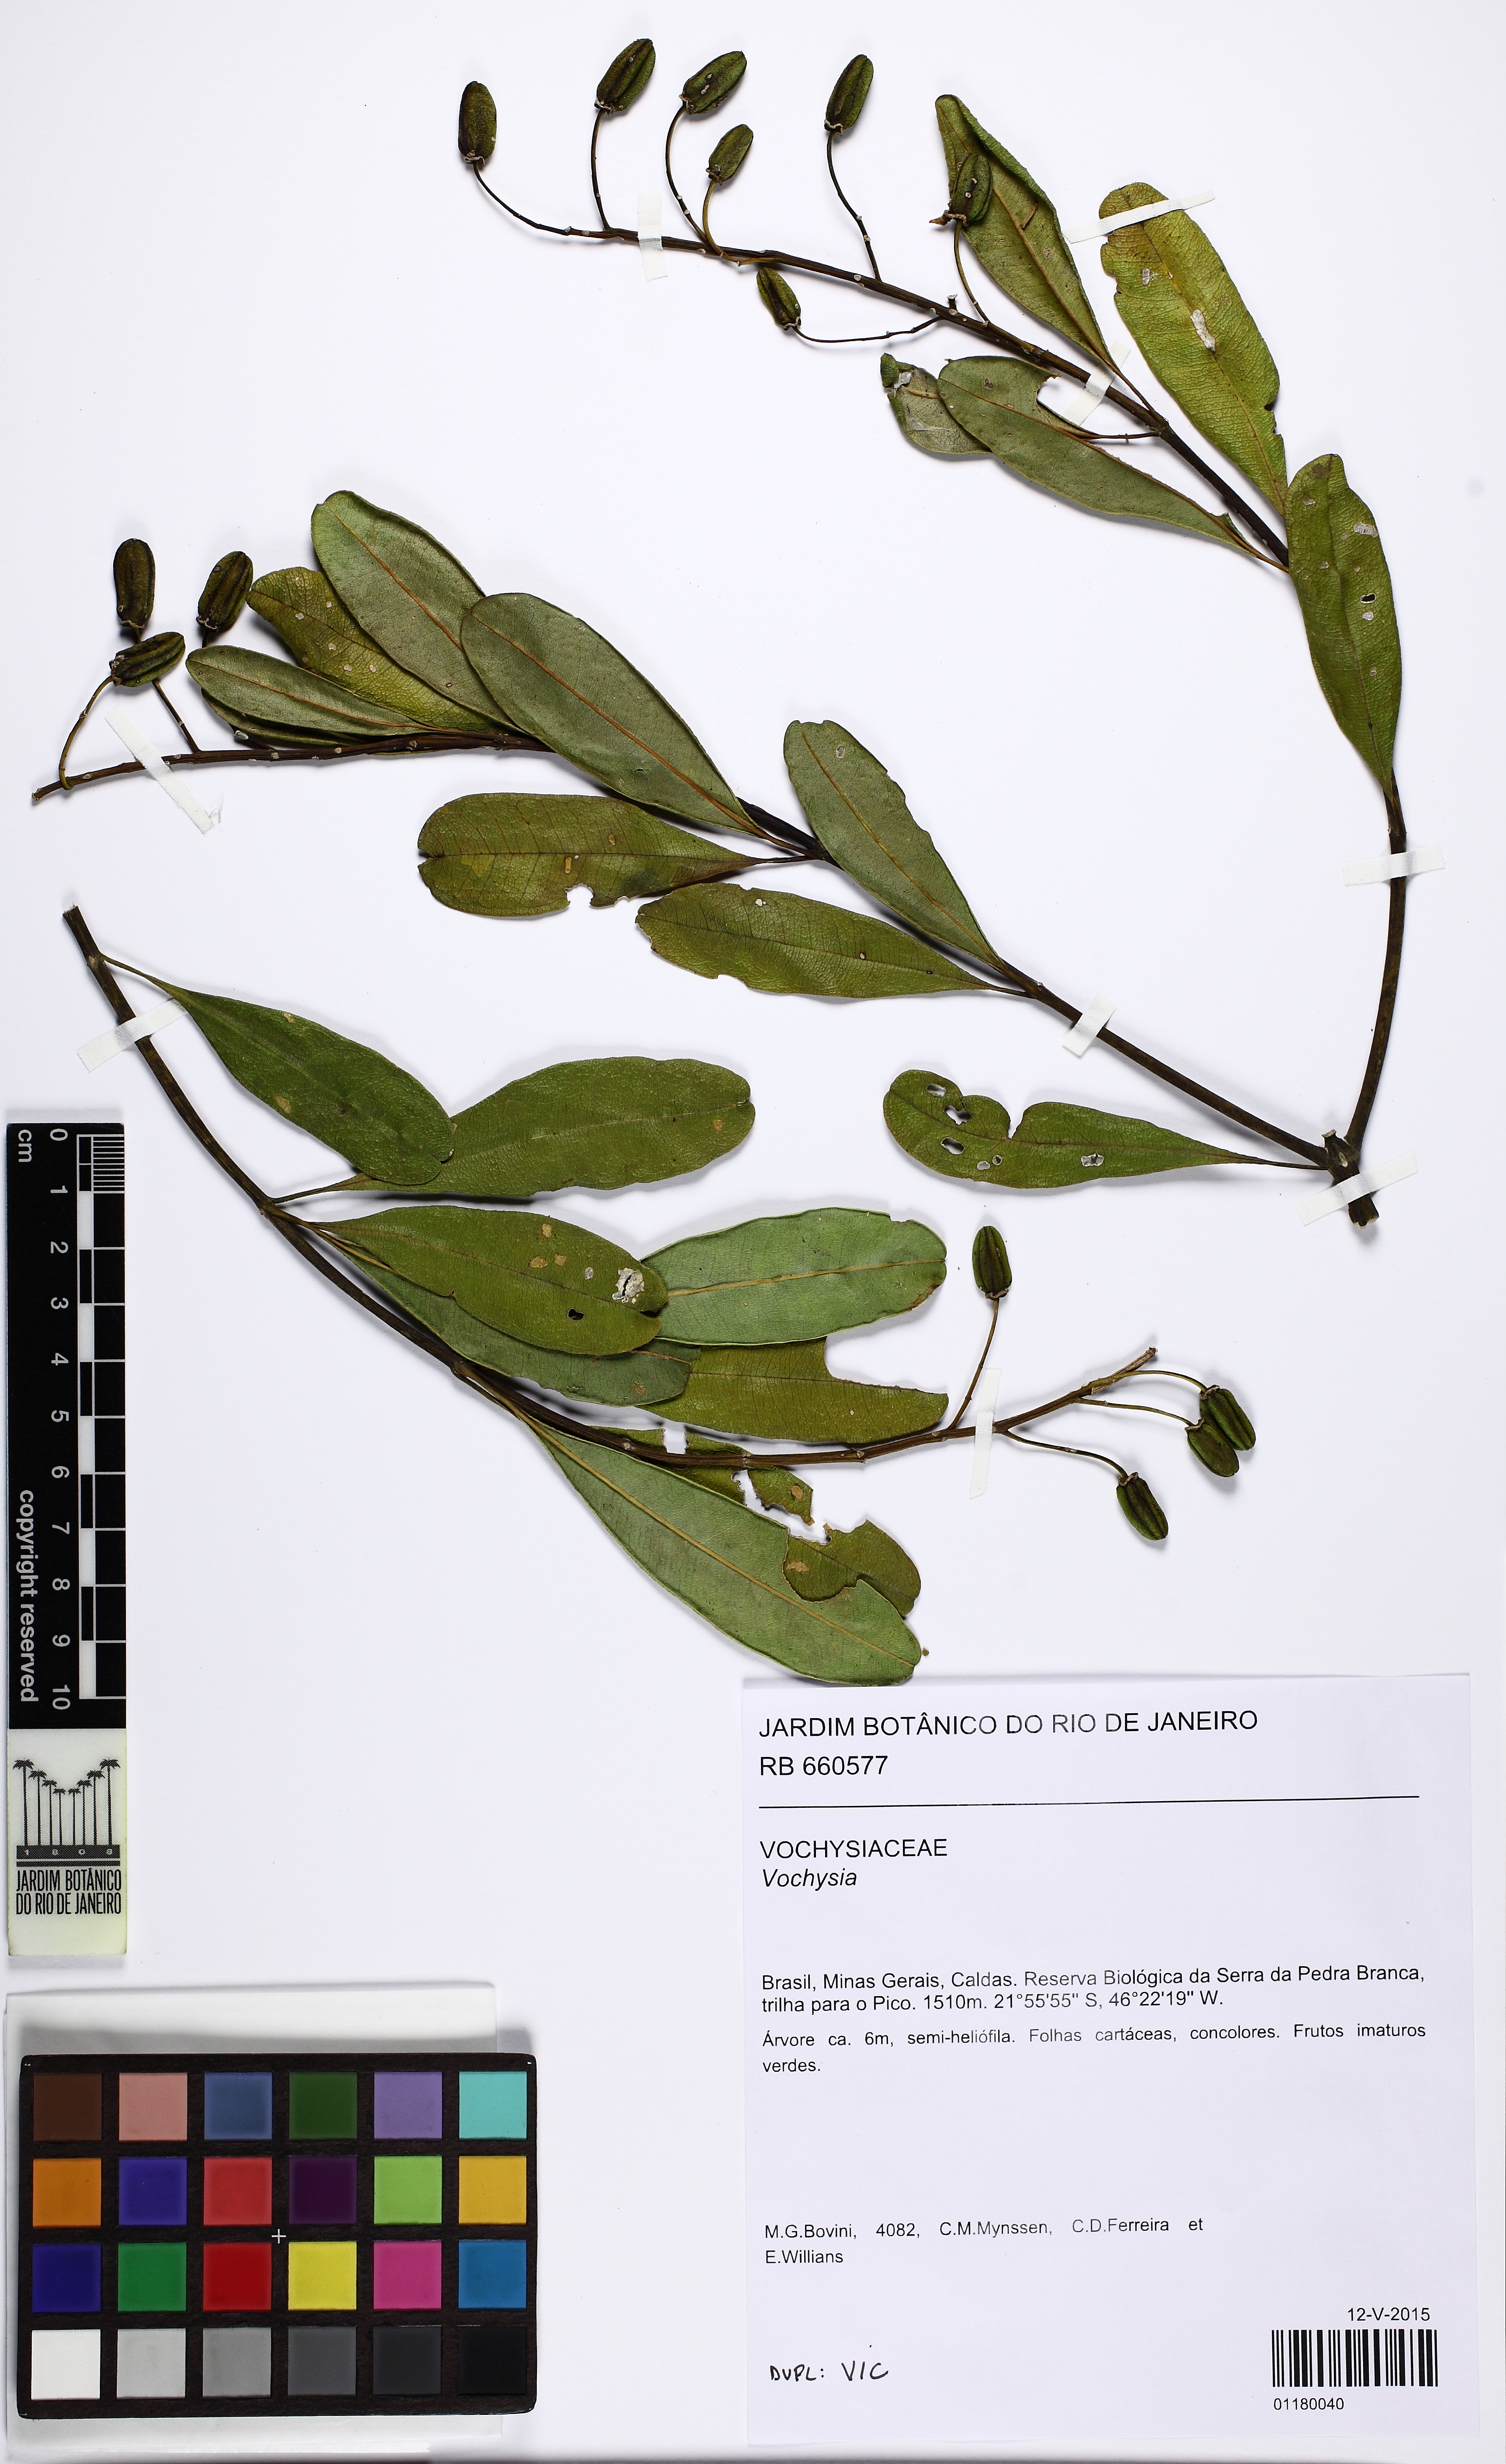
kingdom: Plantae
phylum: Tracheophyta
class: Magnoliopsida
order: Myrtales
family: Vochysiaceae
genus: Vochysia
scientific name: Vochysia
